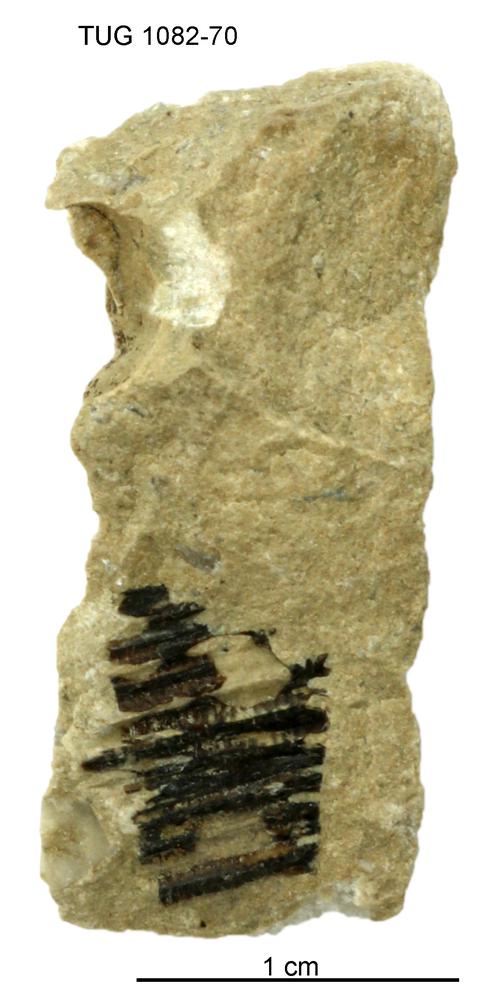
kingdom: Animalia
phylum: Cnidaria
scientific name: Cnidaria
